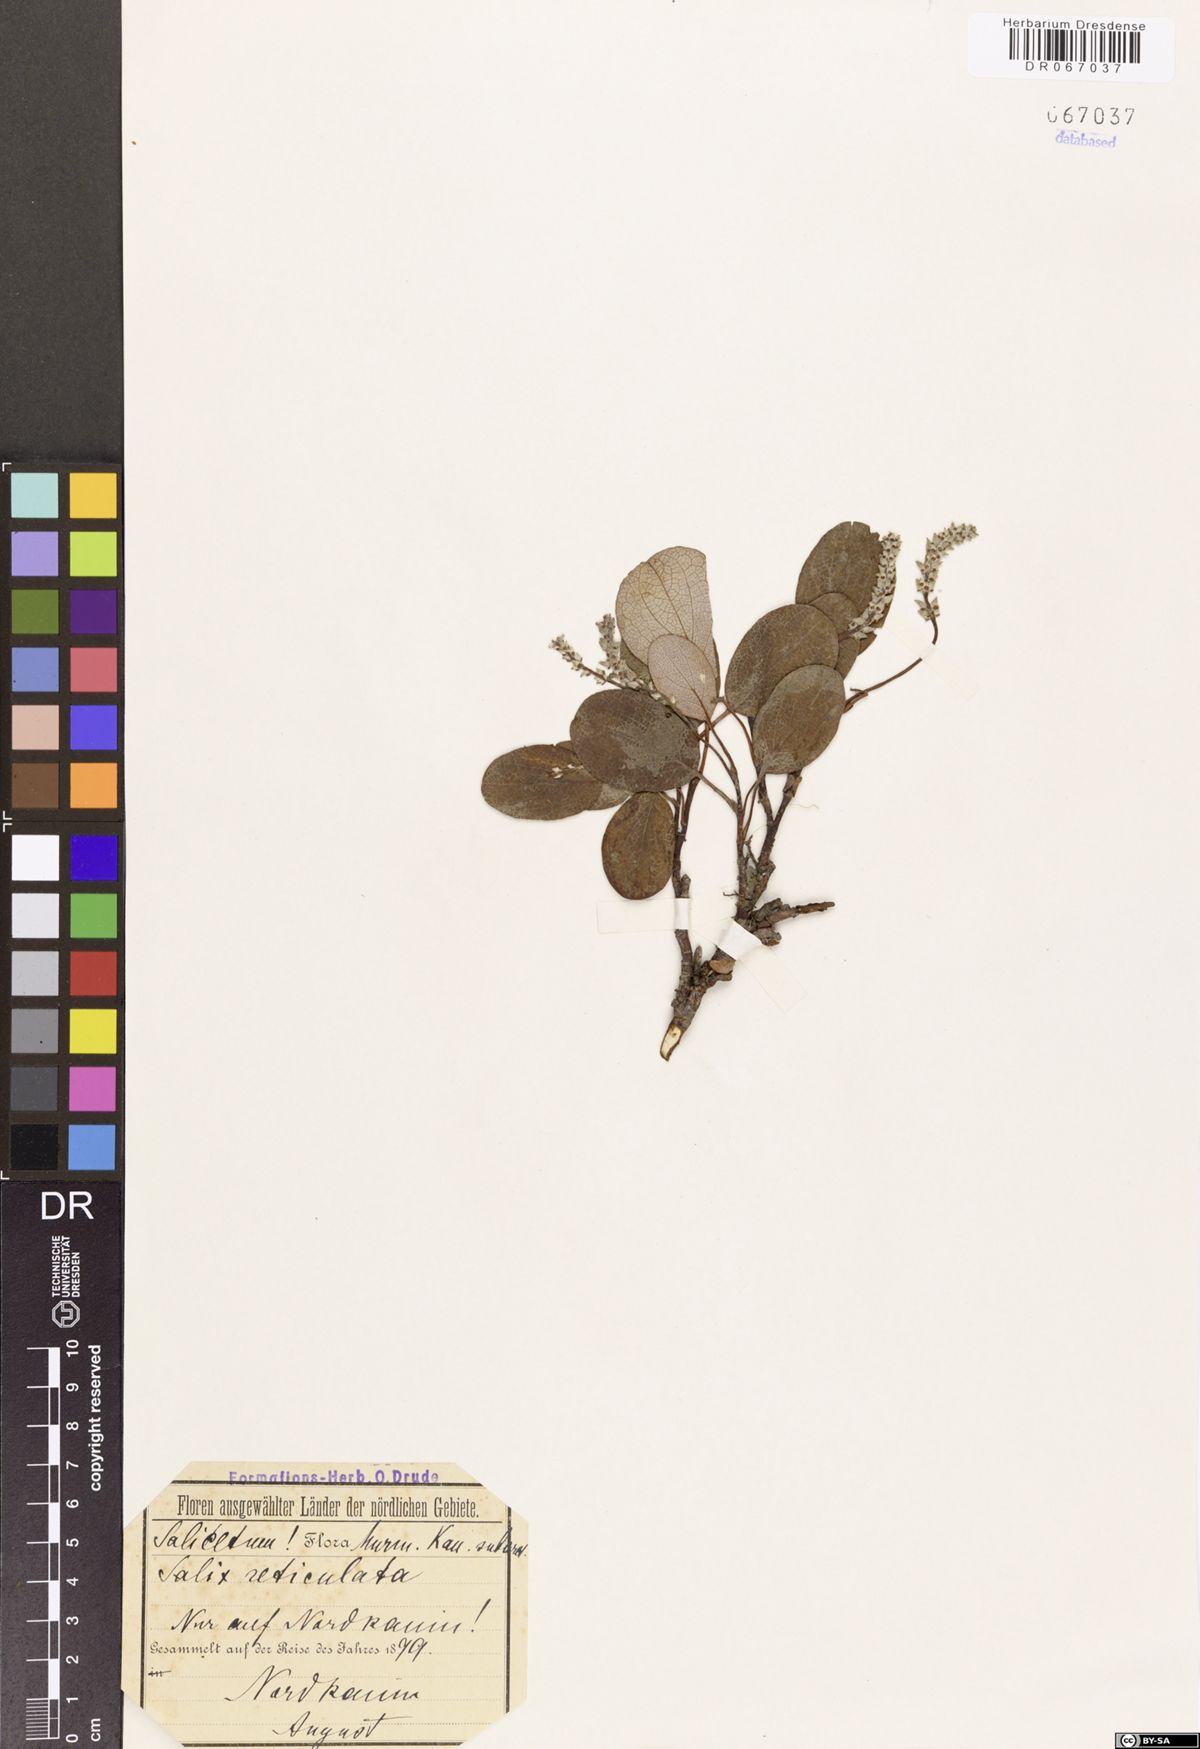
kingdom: Plantae
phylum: Tracheophyta
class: Magnoliopsida
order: Malpighiales
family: Salicaceae
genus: Salix
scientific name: Salix reticulata
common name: Net-leaved willow
